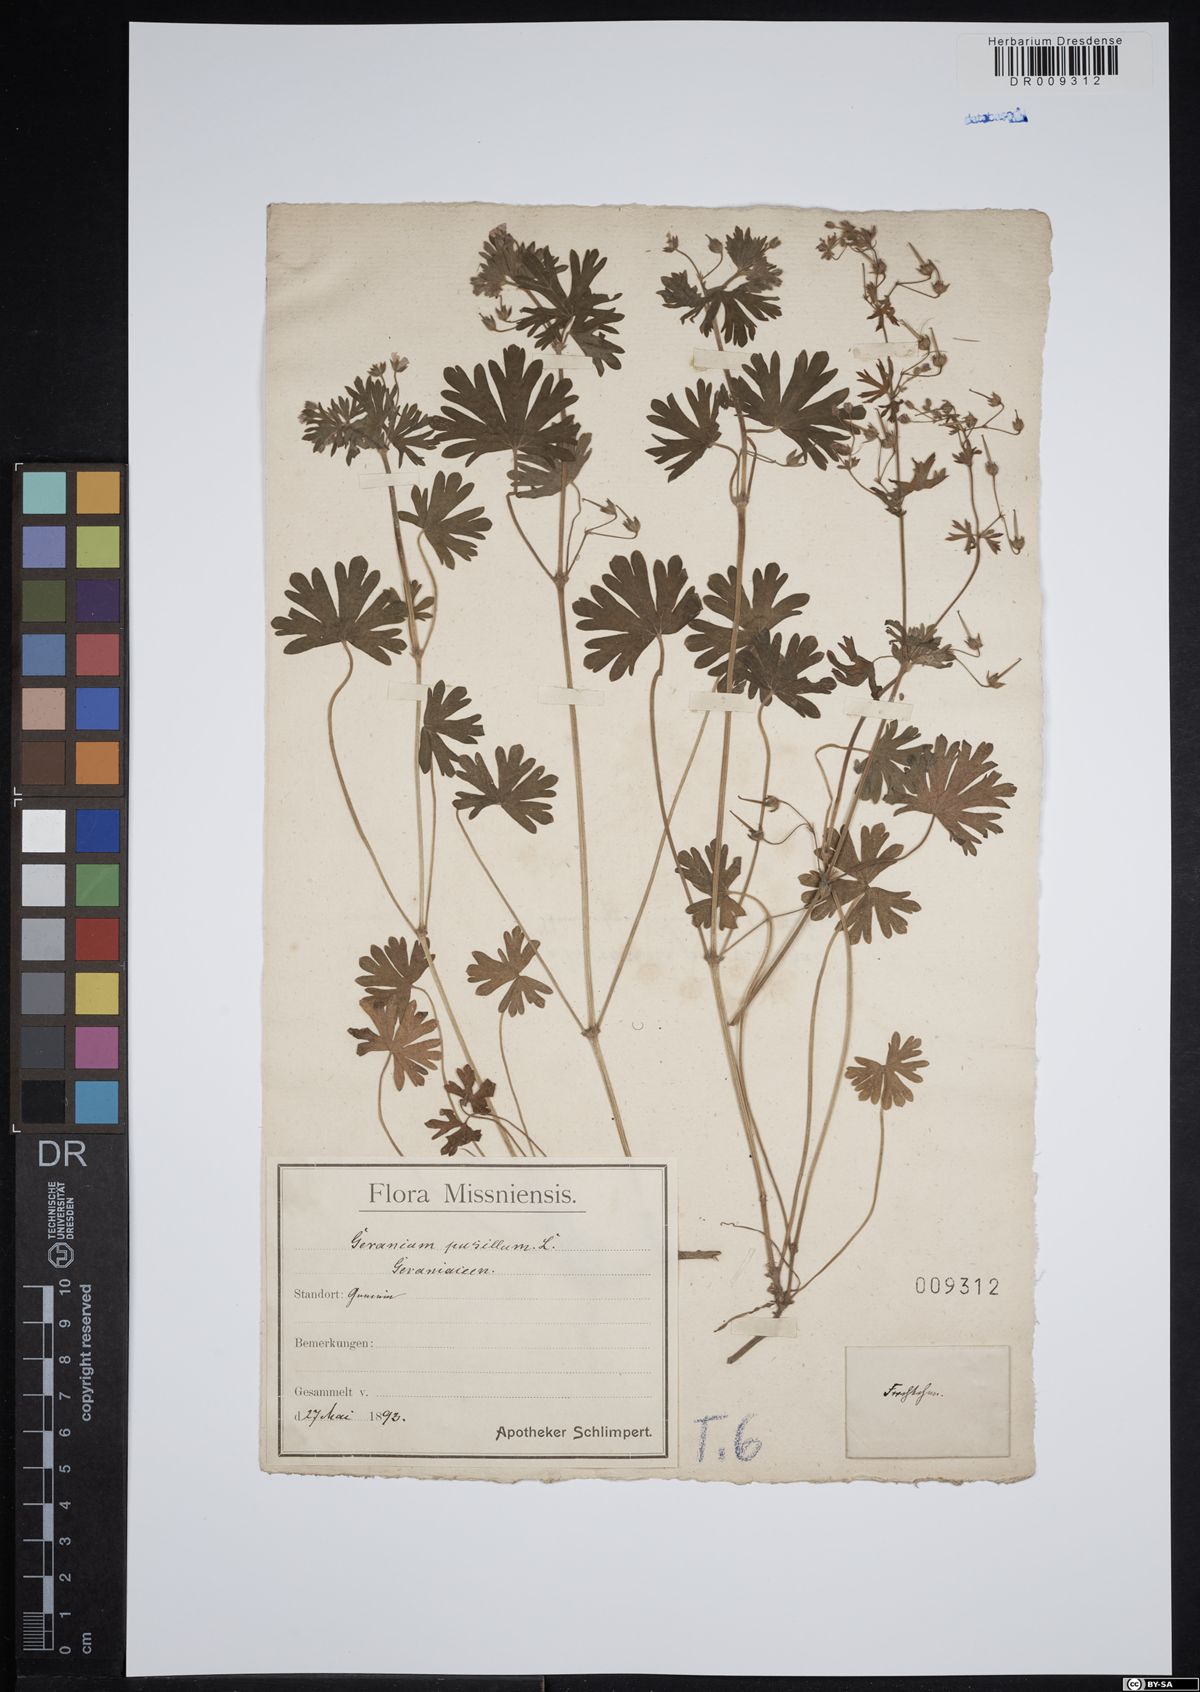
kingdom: Plantae
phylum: Tracheophyta
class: Magnoliopsida
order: Geraniales
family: Geraniaceae
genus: Geranium
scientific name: Geranium pusillum
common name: Small geranium
